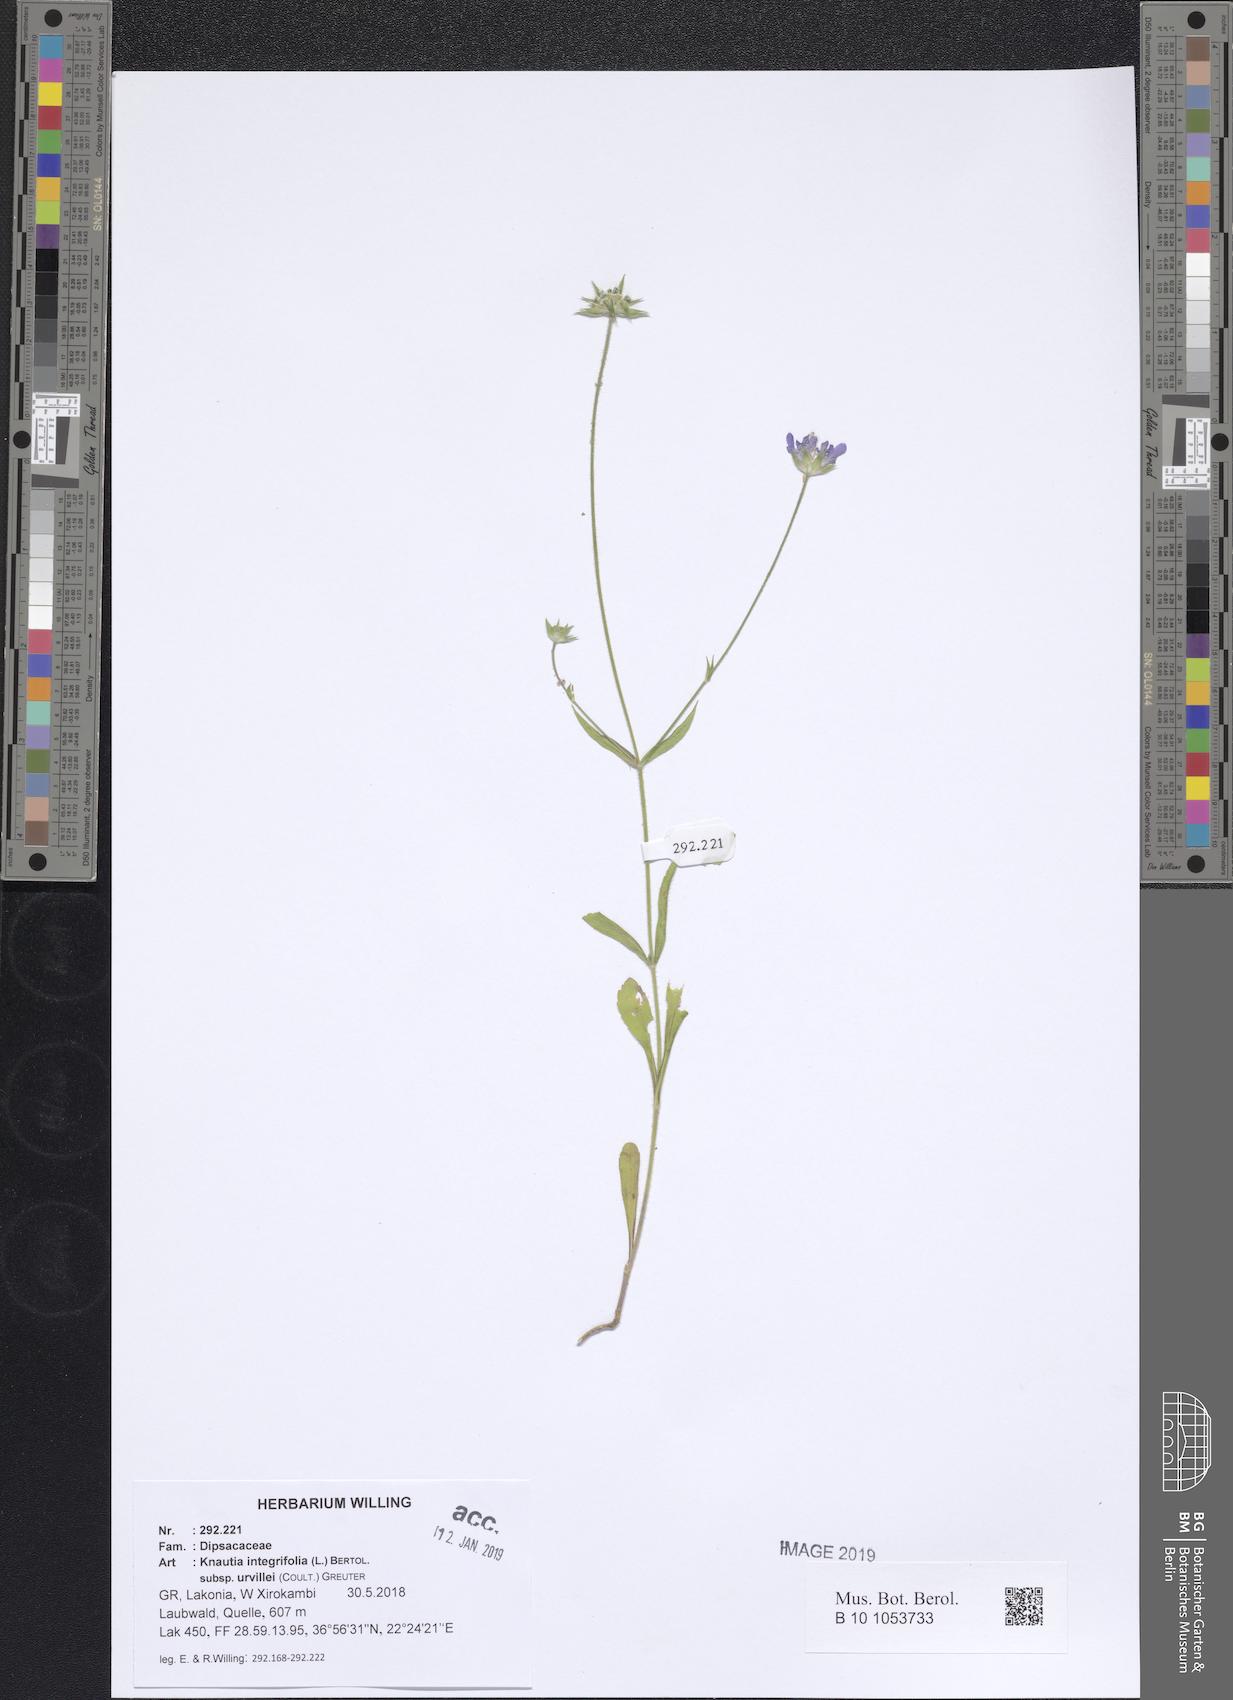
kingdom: Plantae
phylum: Tracheophyta
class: Magnoliopsida
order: Dipsacales
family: Caprifoliaceae
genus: Knautia
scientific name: Knautia integrifolia
